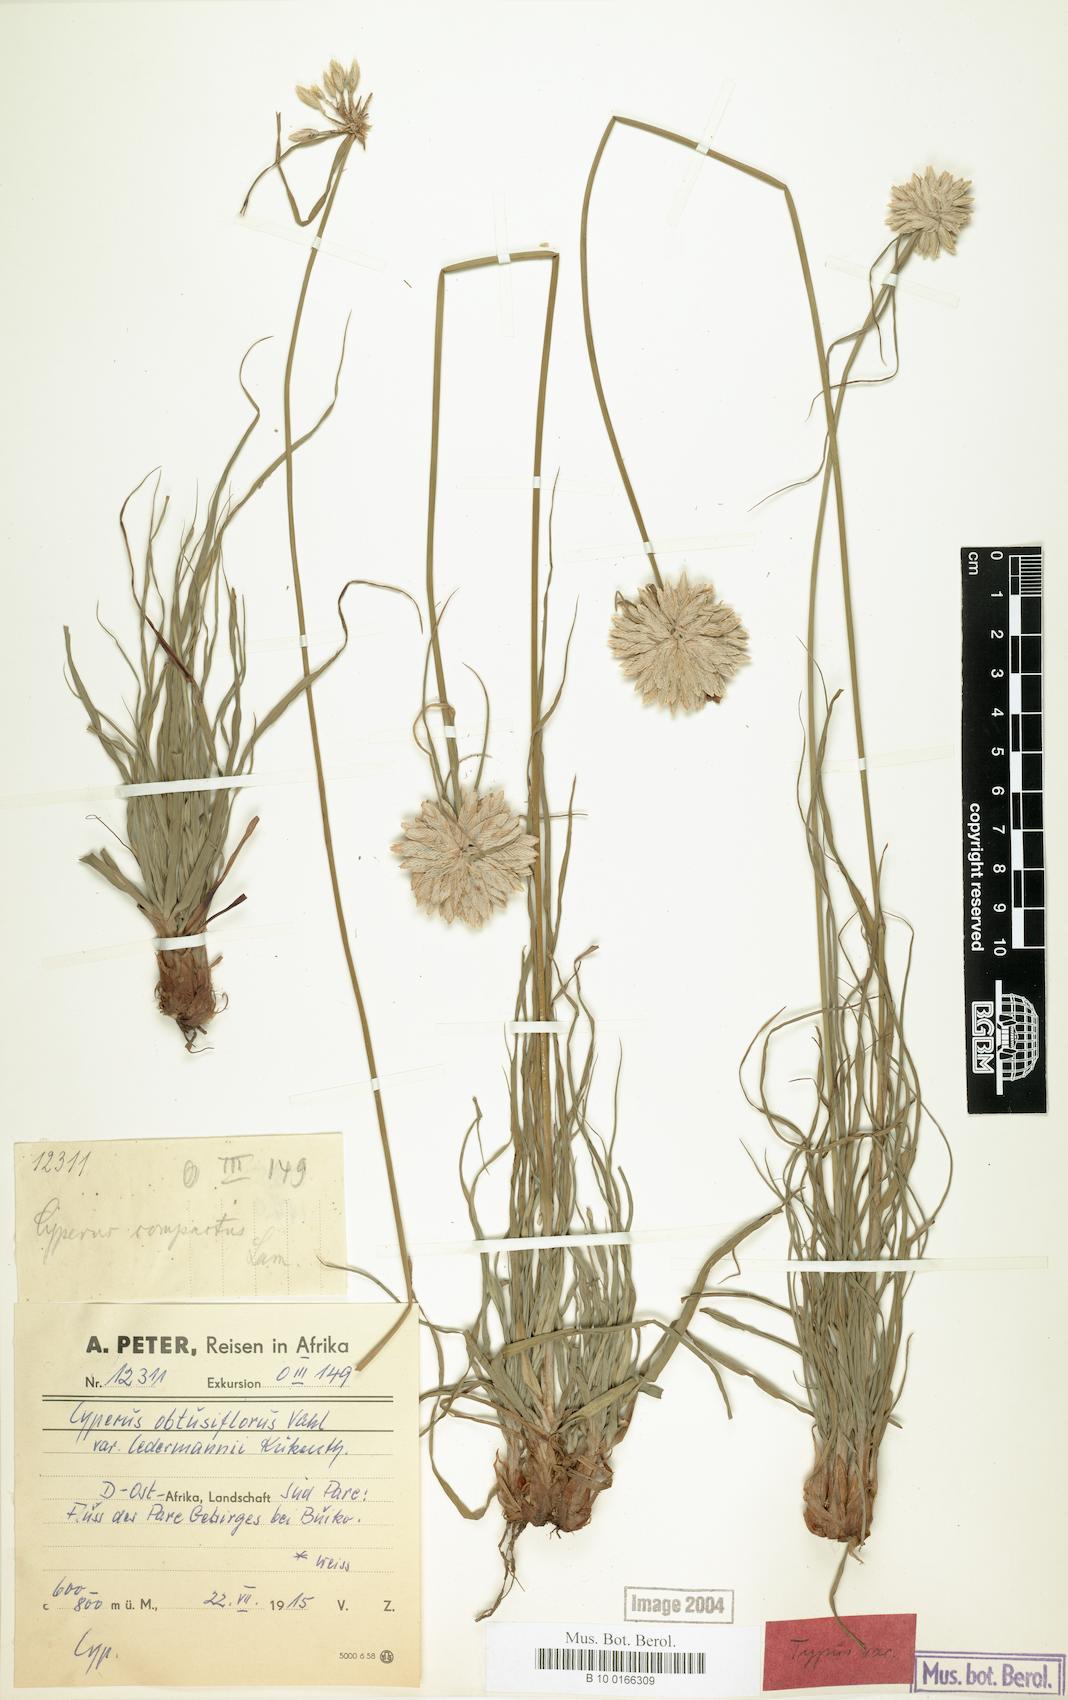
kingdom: Plantae
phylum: Tracheophyta
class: Liliopsida
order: Poales
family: Cyperaceae
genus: Cyperus
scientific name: Cyperus niveus
